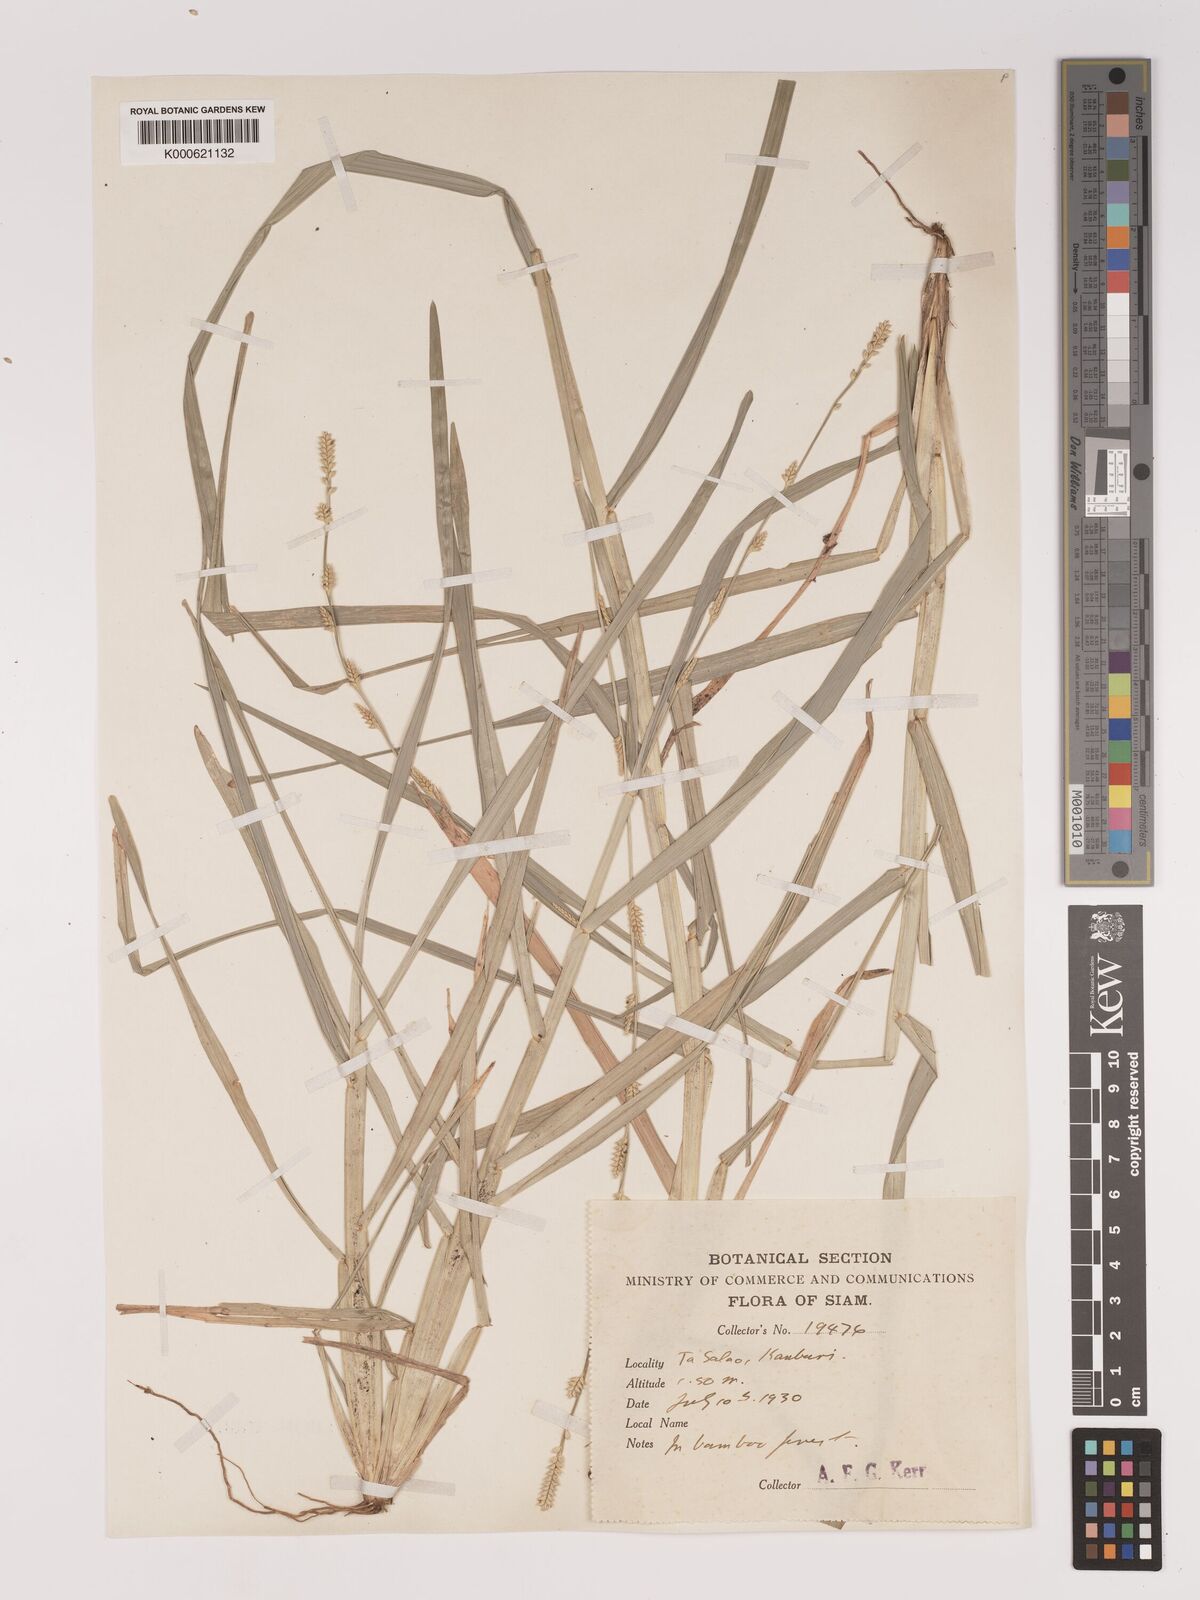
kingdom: Plantae
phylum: Tracheophyta
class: Liliopsida
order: Poales
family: Poaceae
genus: Setaria
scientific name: Setaria flavida
